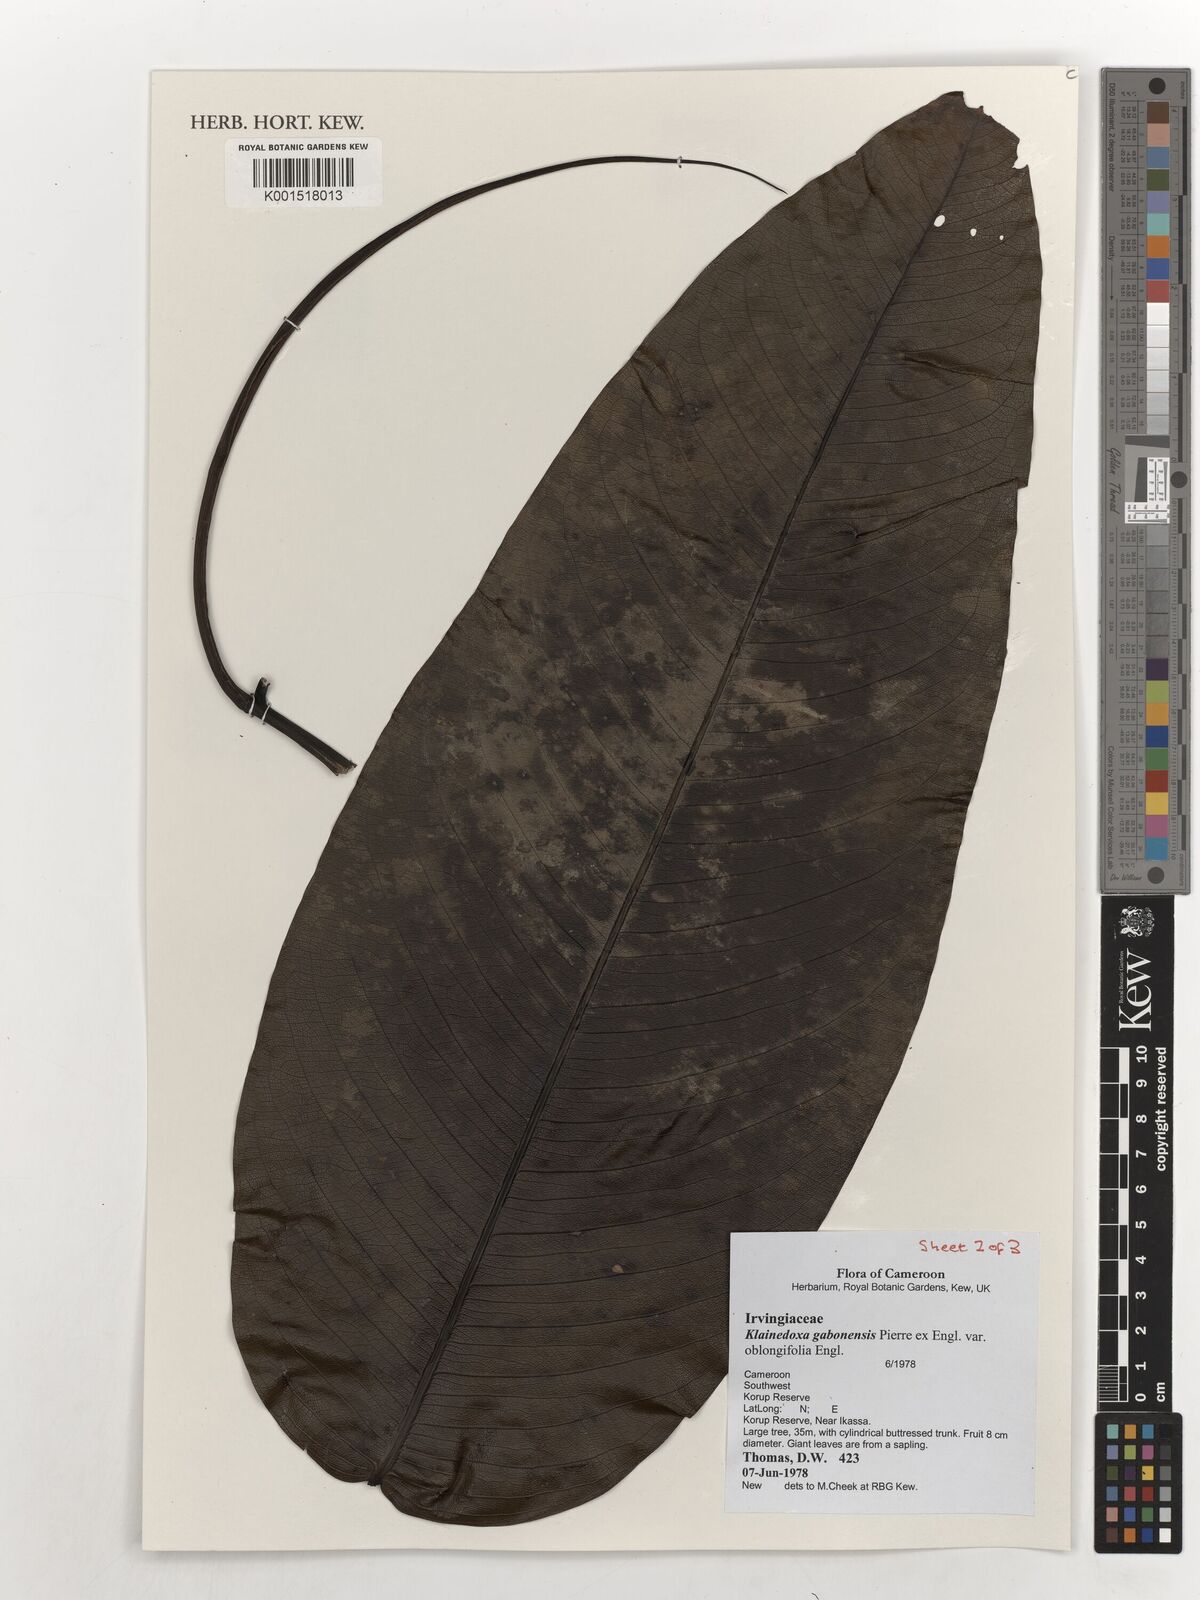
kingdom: Plantae
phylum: Tracheophyta
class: Magnoliopsida
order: Malpighiales
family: Irvingiaceae
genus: Klainedoxa
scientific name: Klainedoxa gabonensis
